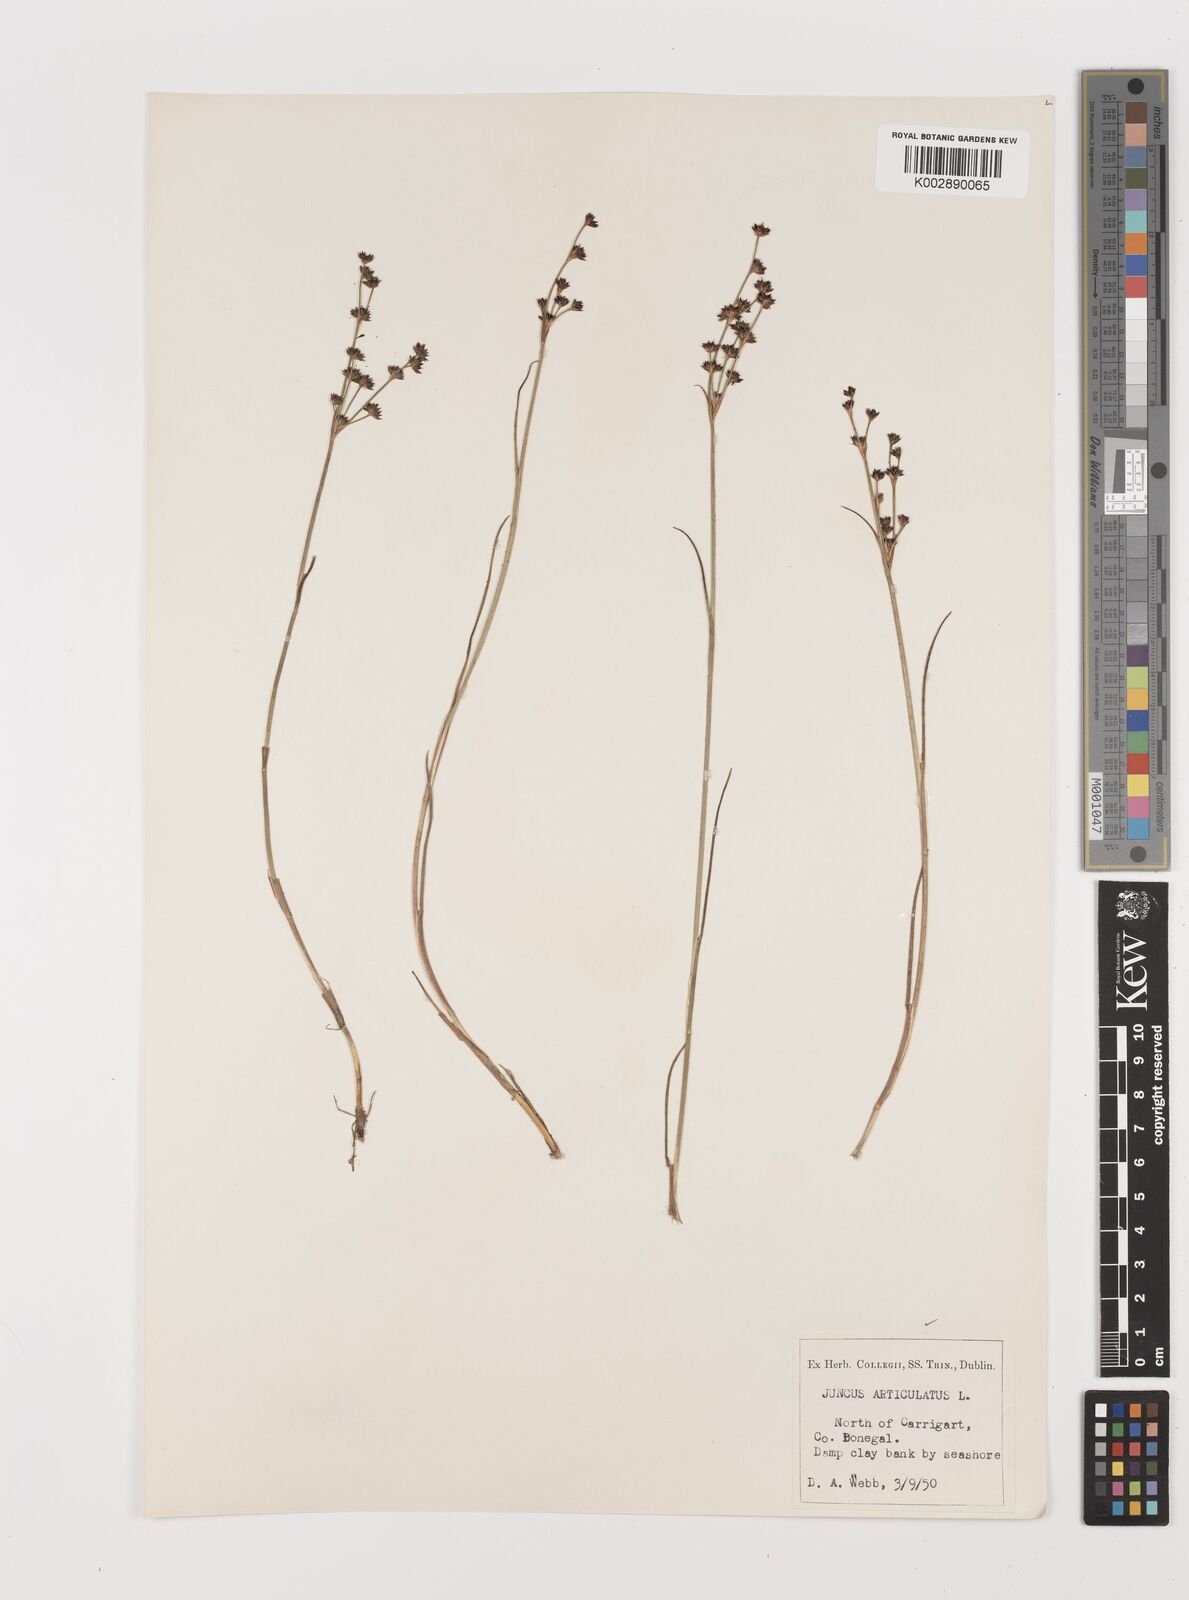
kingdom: Plantae
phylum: Tracheophyta
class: Liliopsida
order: Poales
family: Juncaceae
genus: Juncus
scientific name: Juncus articulatus
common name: Jointed rush
